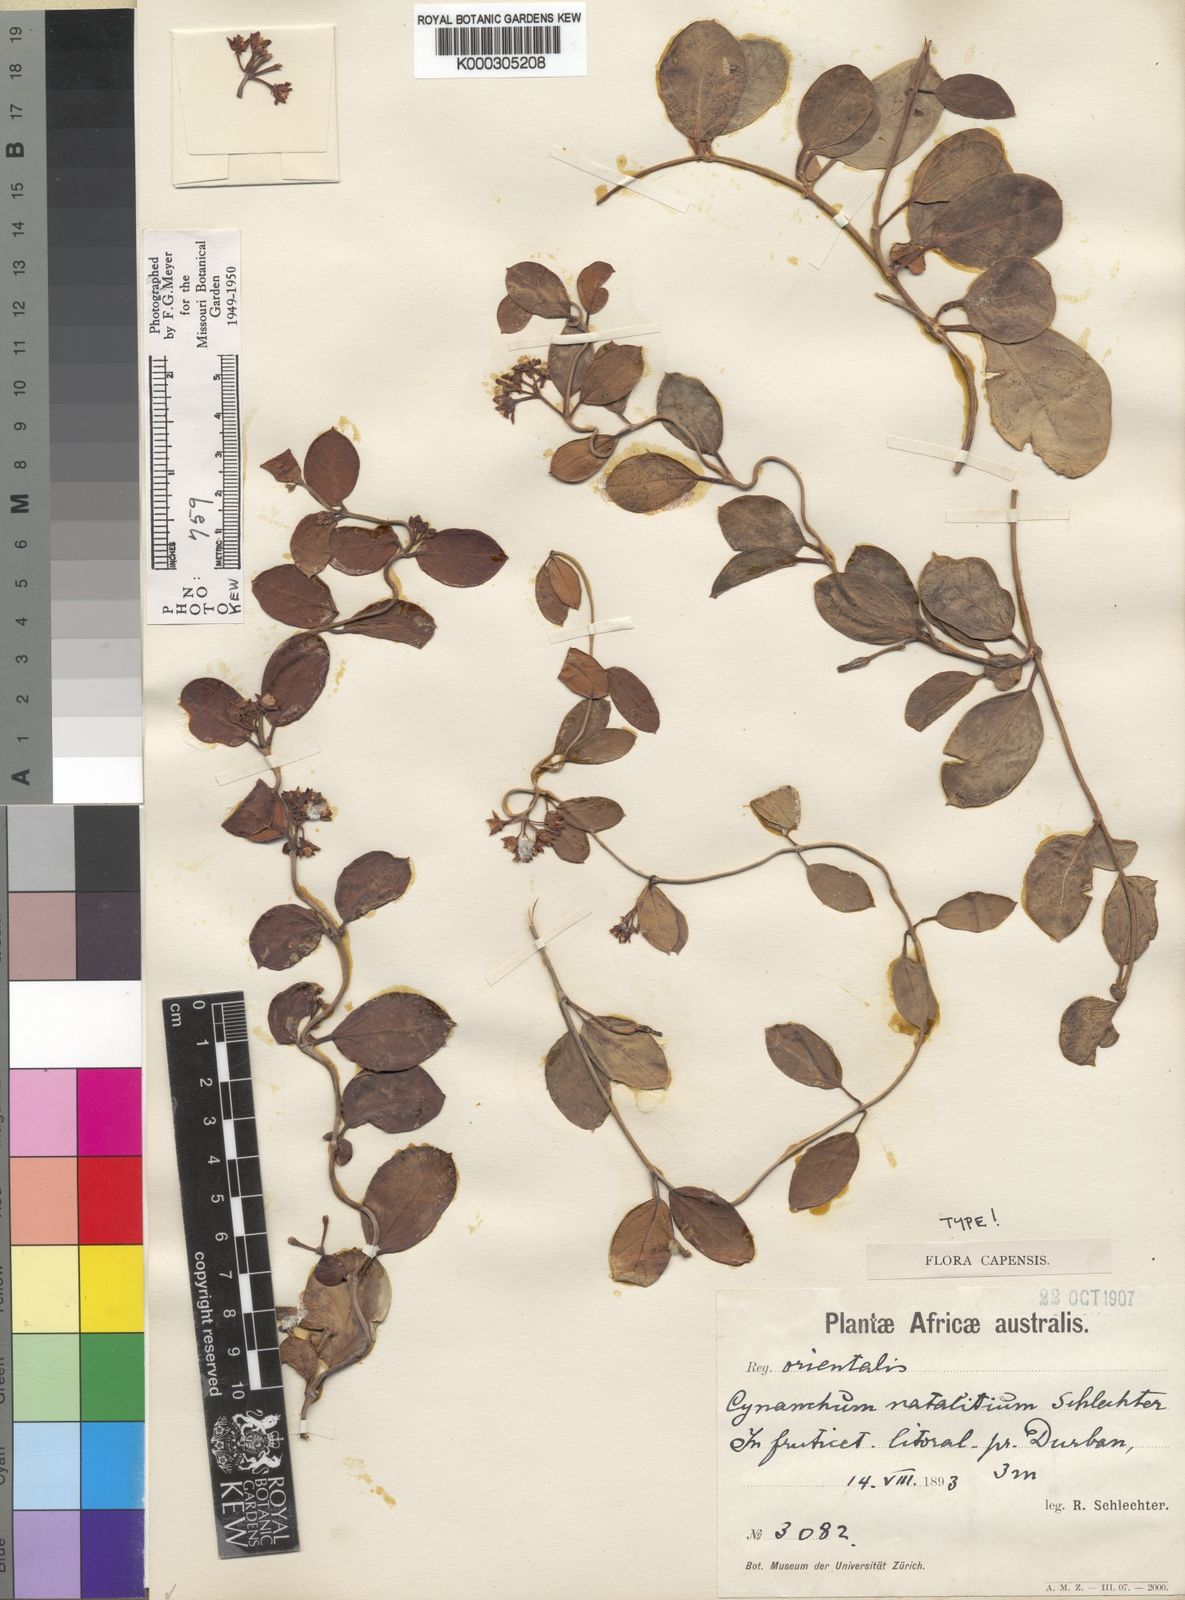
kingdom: Plantae
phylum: Tracheophyta
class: Magnoliopsida
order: Gentianales
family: Apocynaceae
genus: Cynanchum
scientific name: Cynanchum natalitium
